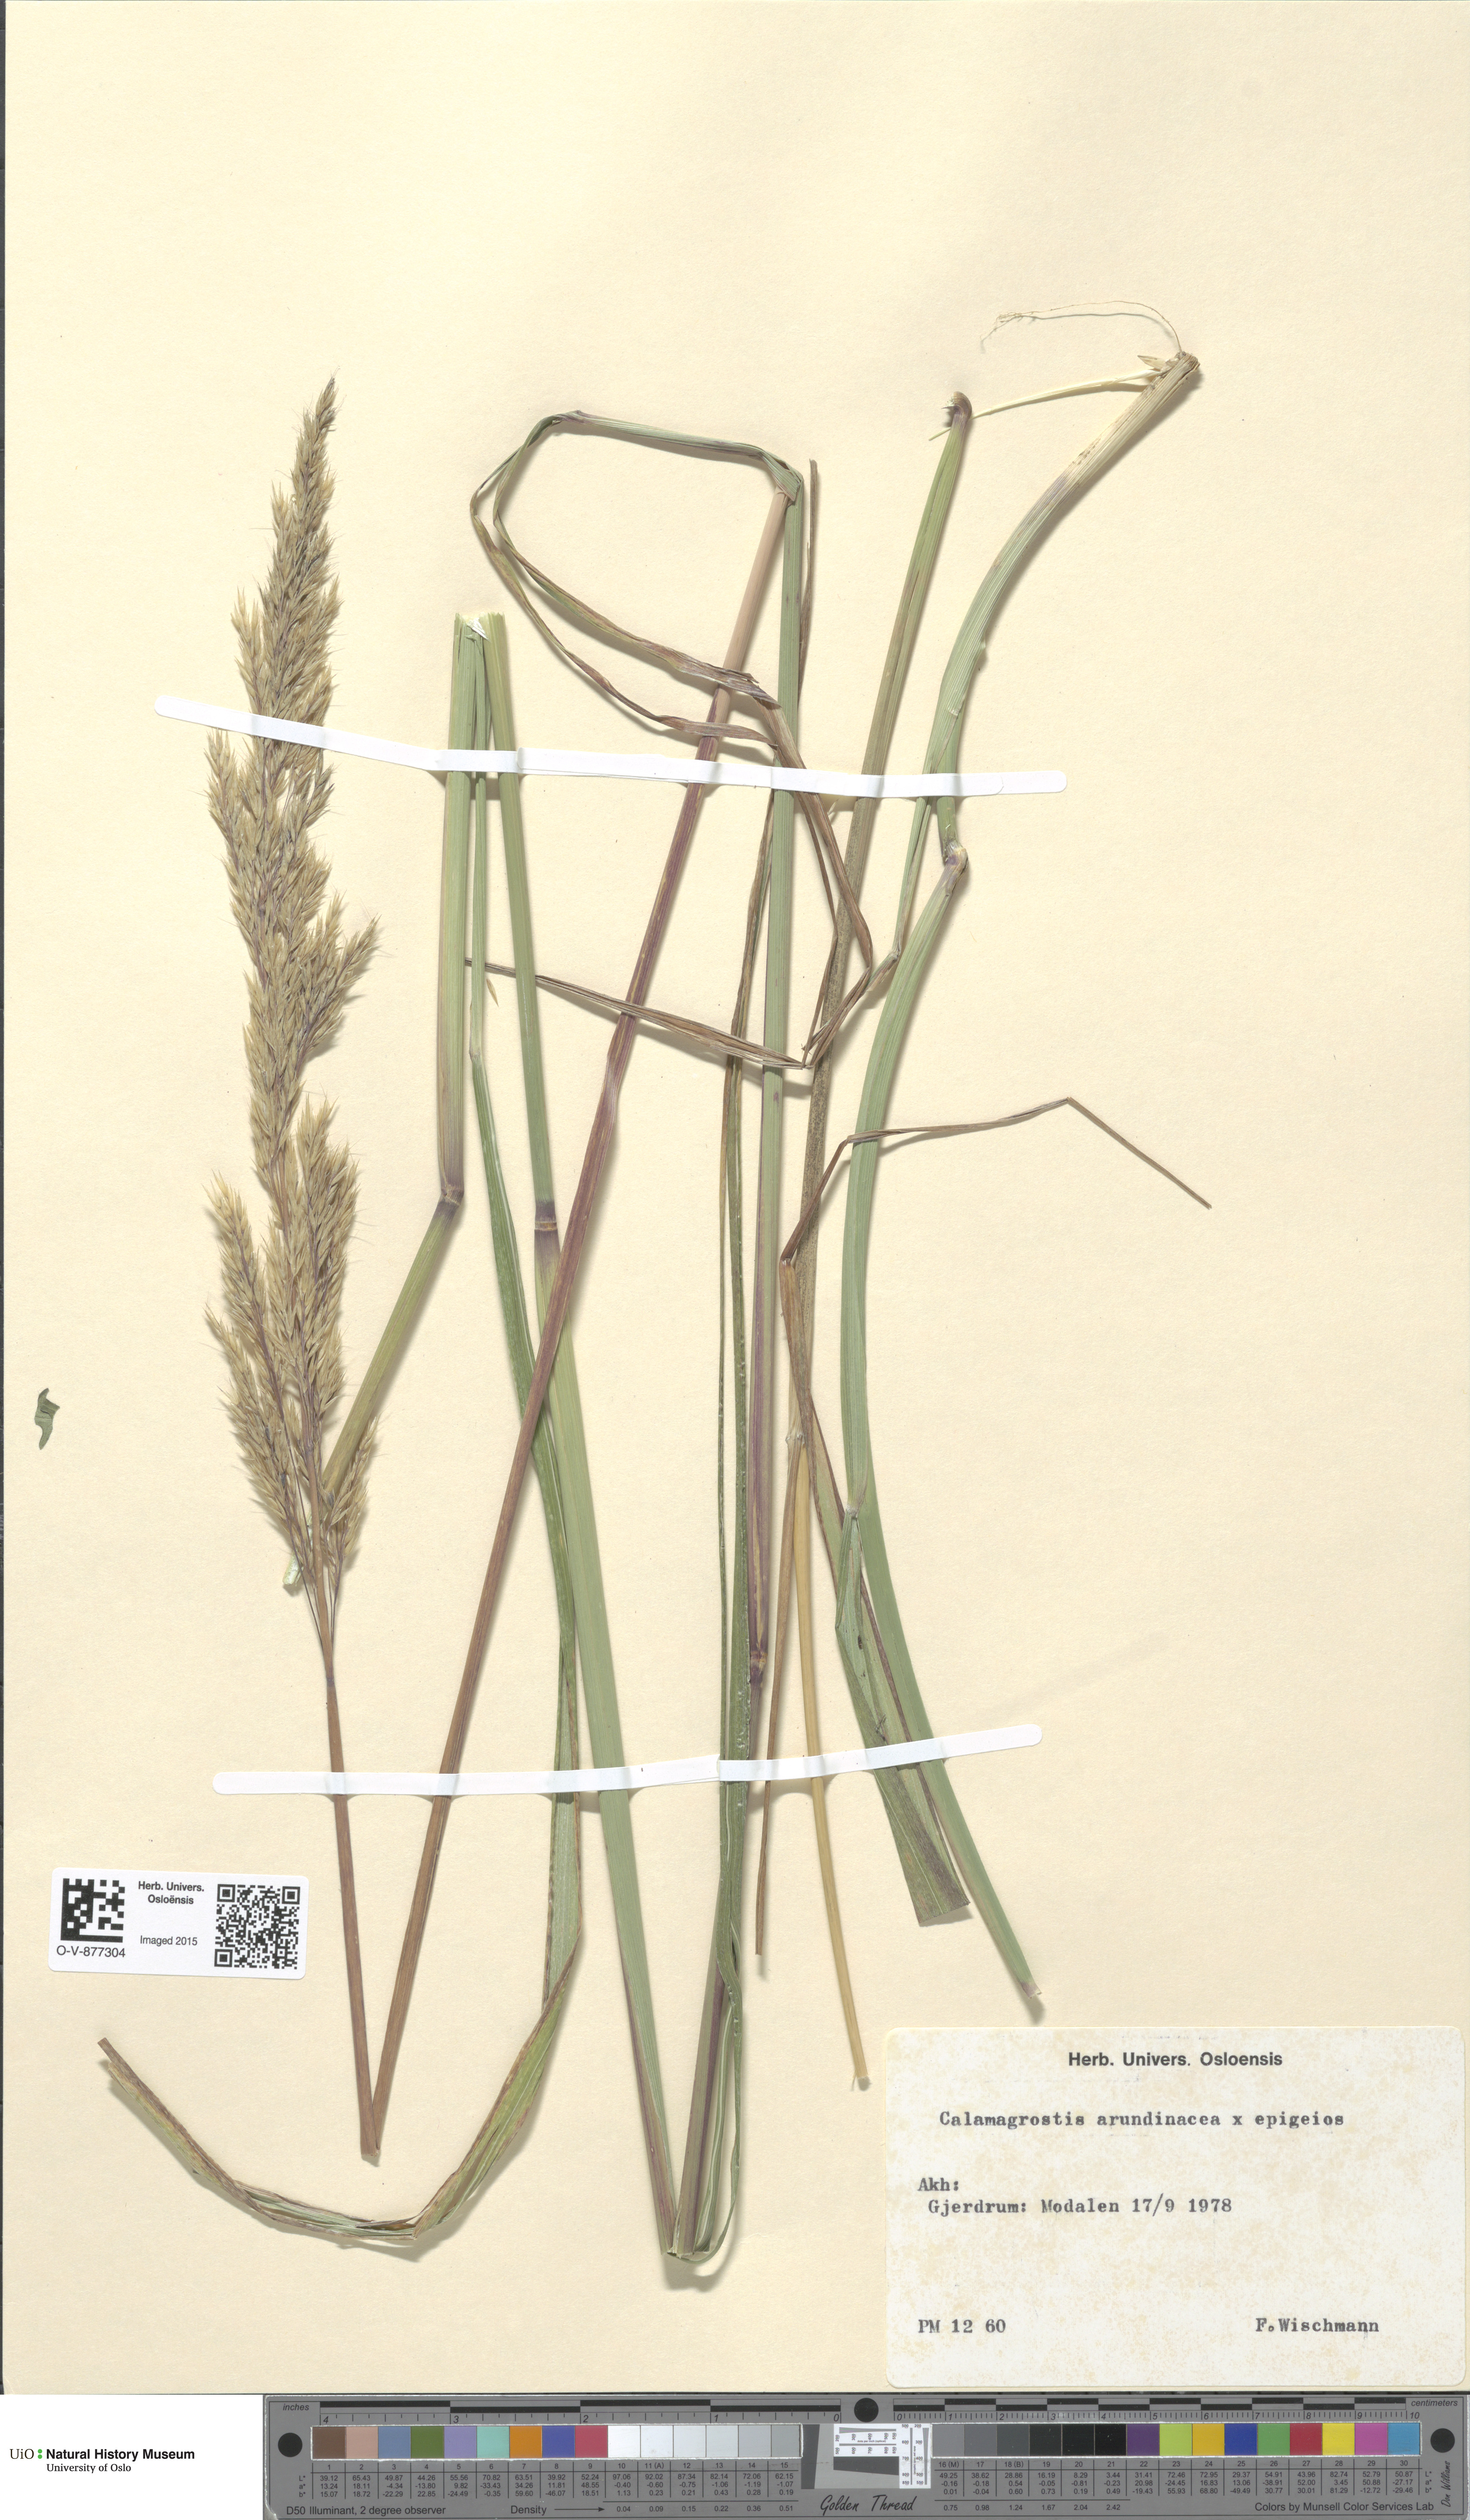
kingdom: Plantae
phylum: Tracheophyta
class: Liliopsida
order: Poales
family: Poaceae
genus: Calamagrostis
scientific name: Calamagrostis
